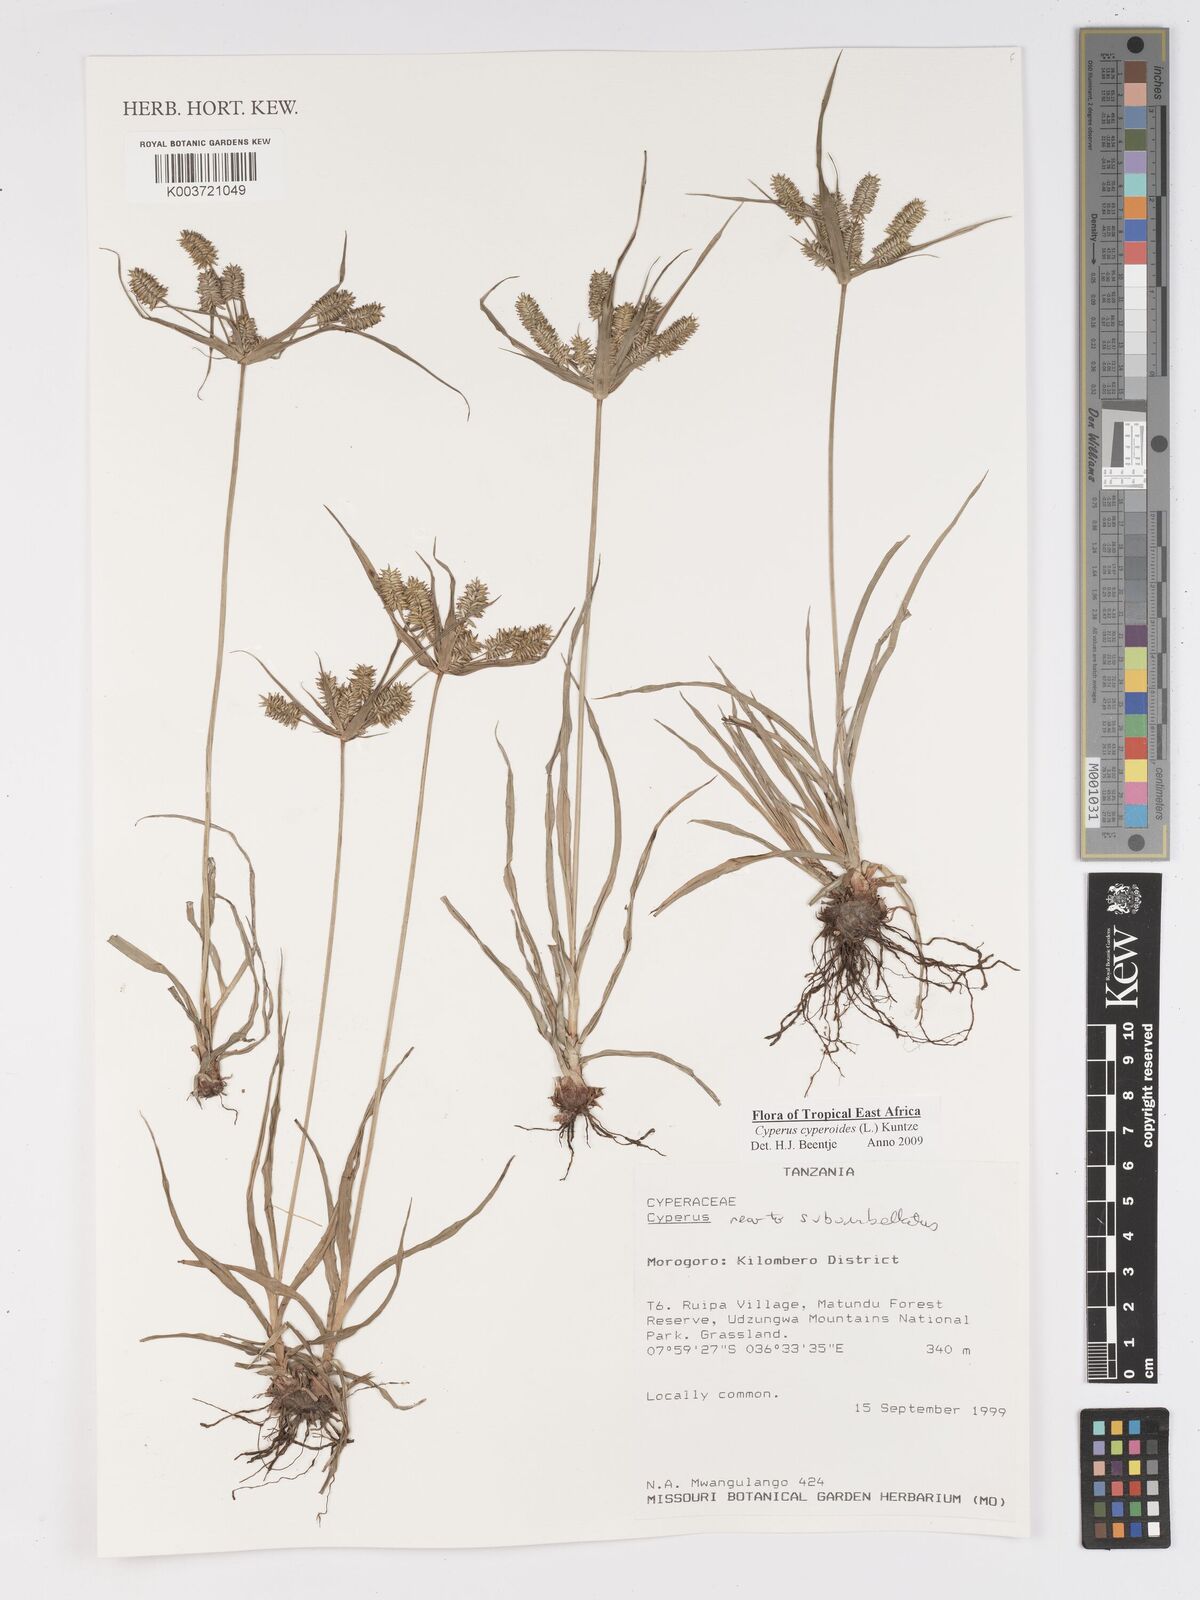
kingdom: Plantae
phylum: Tracheophyta
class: Liliopsida
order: Poales
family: Cyperaceae
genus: Cyperus
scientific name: Cyperus cyperoides
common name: Pacific island flat sedge
